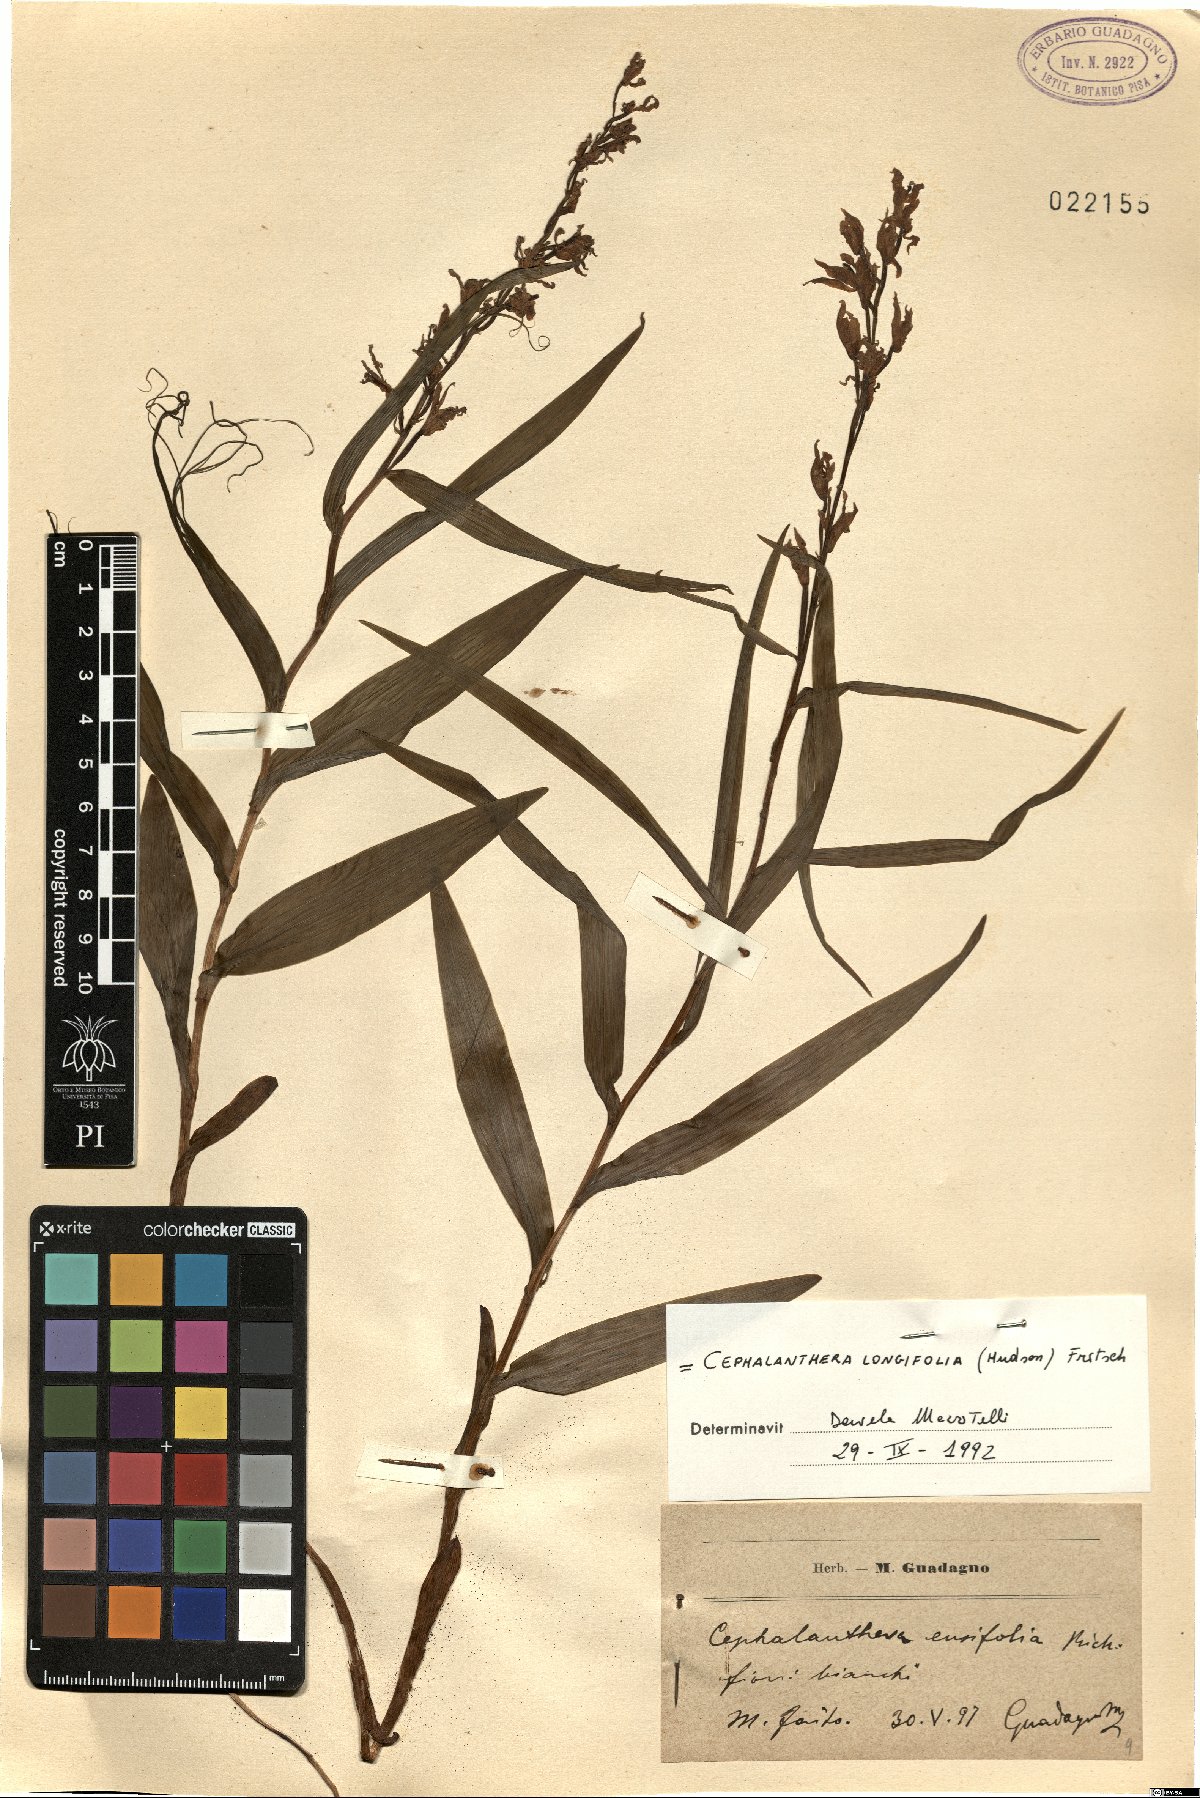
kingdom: Plantae
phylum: Tracheophyta
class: Liliopsida
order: Asparagales
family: Orchidaceae
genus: Cephalanthera
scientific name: Cephalanthera longifolia
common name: Narrow-leaved helleborine
